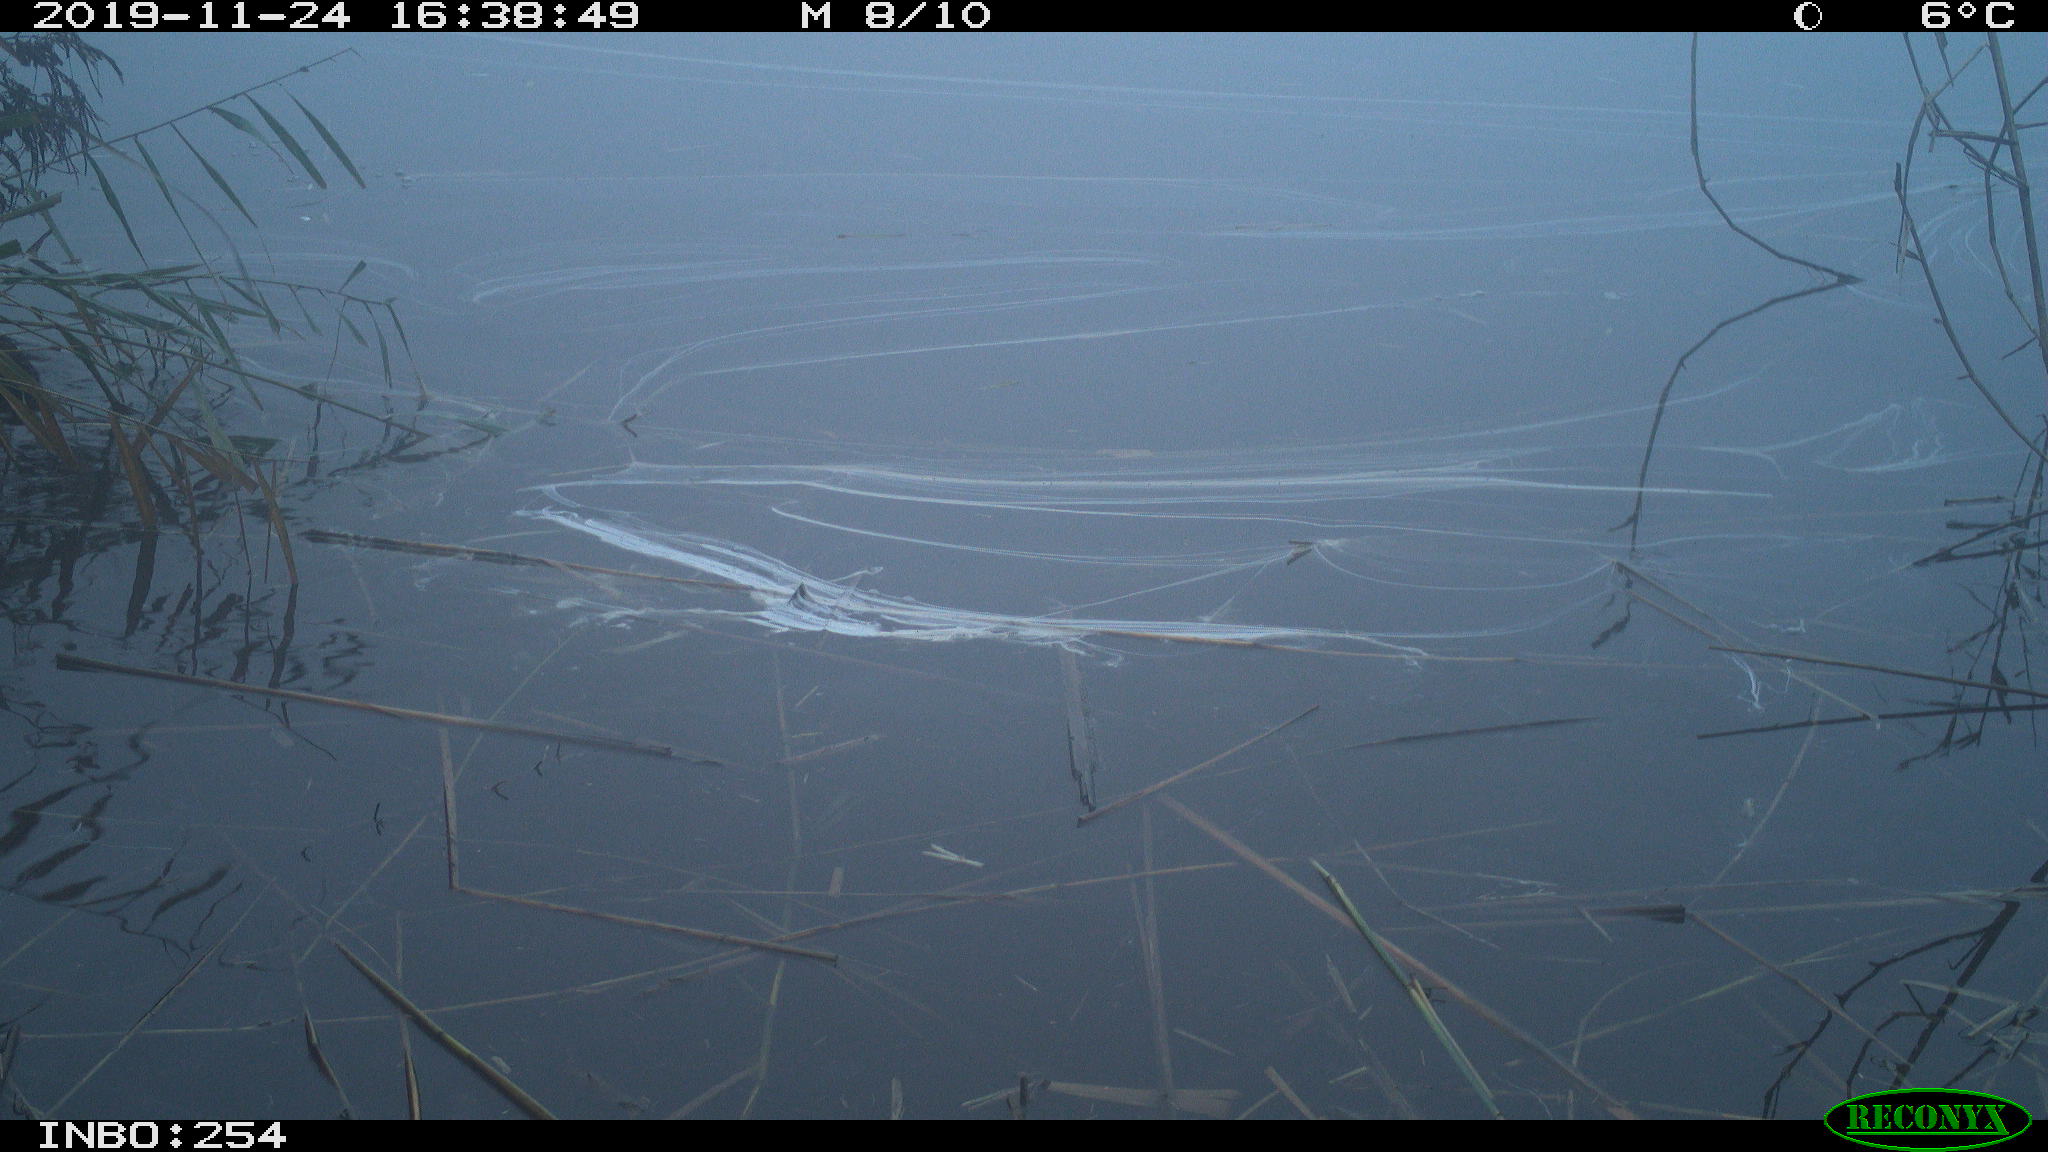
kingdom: Animalia
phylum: Chordata
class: Aves
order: Gruiformes
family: Rallidae
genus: Gallinula
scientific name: Gallinula chloropus
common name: Common moorhen
